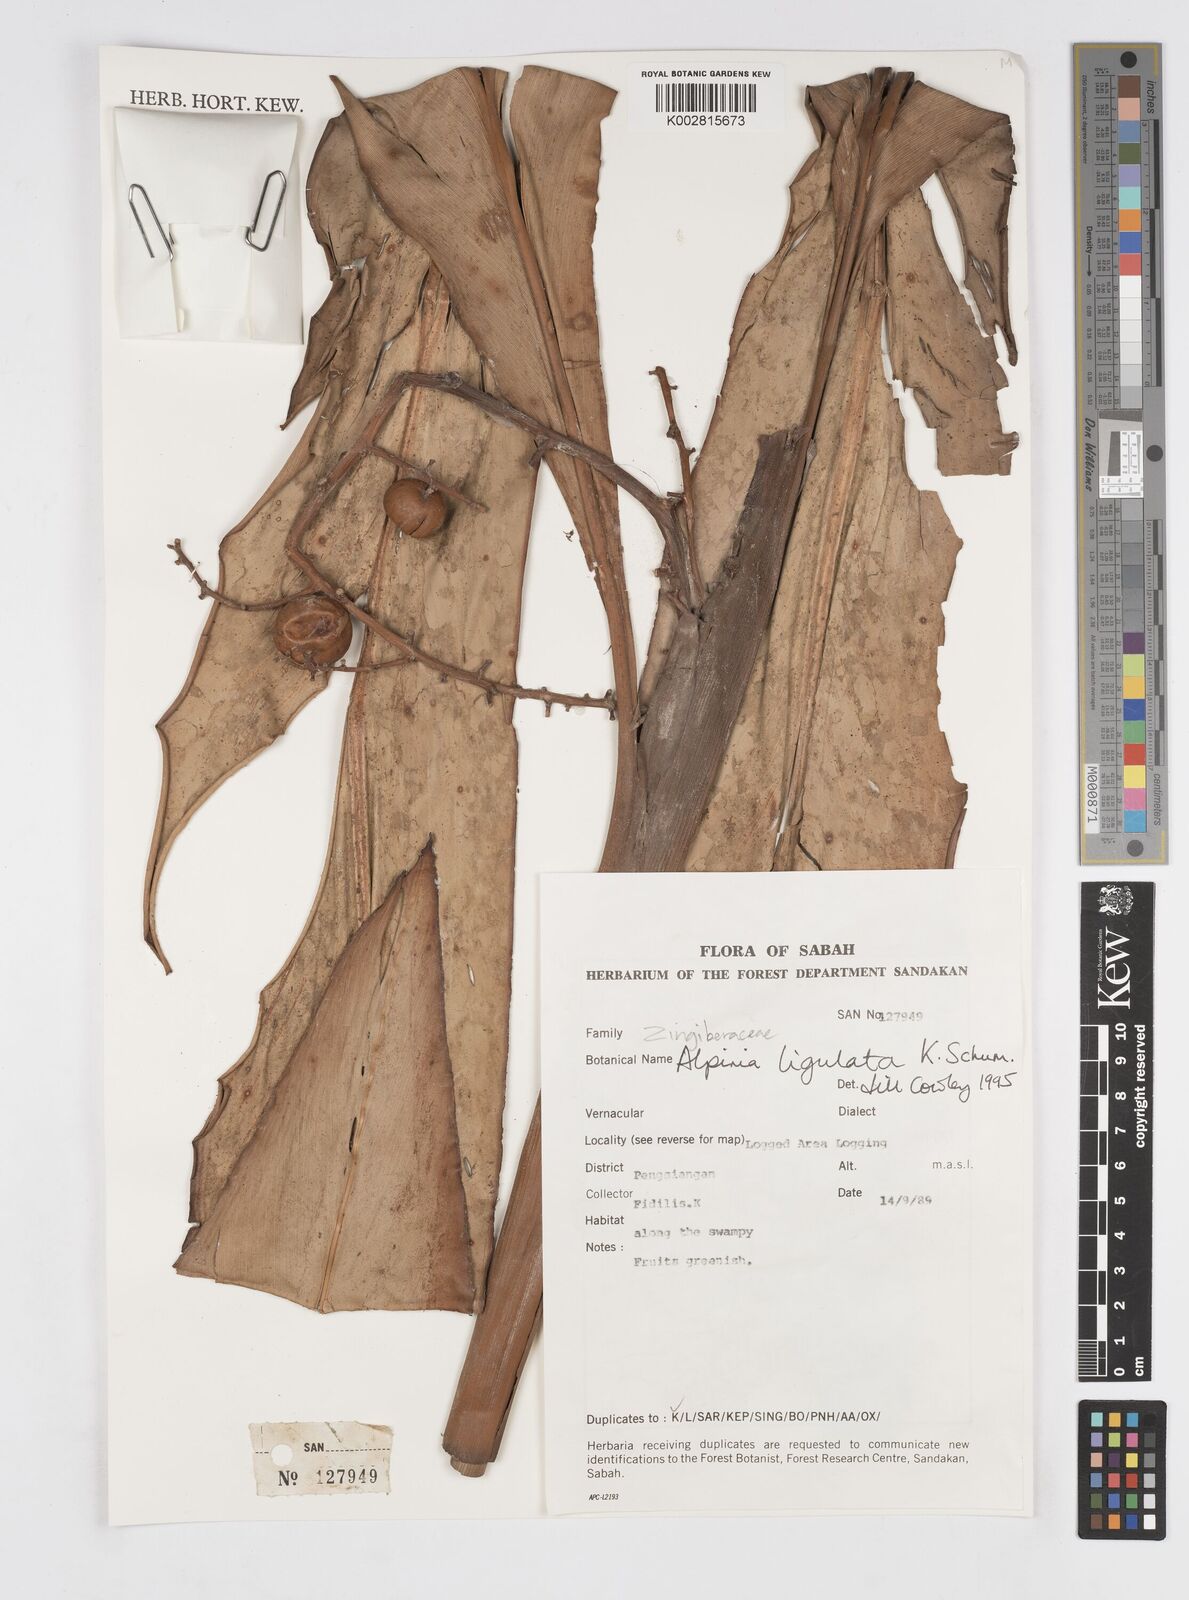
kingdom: Plantae
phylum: Tracheophyta
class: Liliopsida
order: Zingiberales
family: Zingiberaceae
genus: Alpinia
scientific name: Alpinia ligulata
